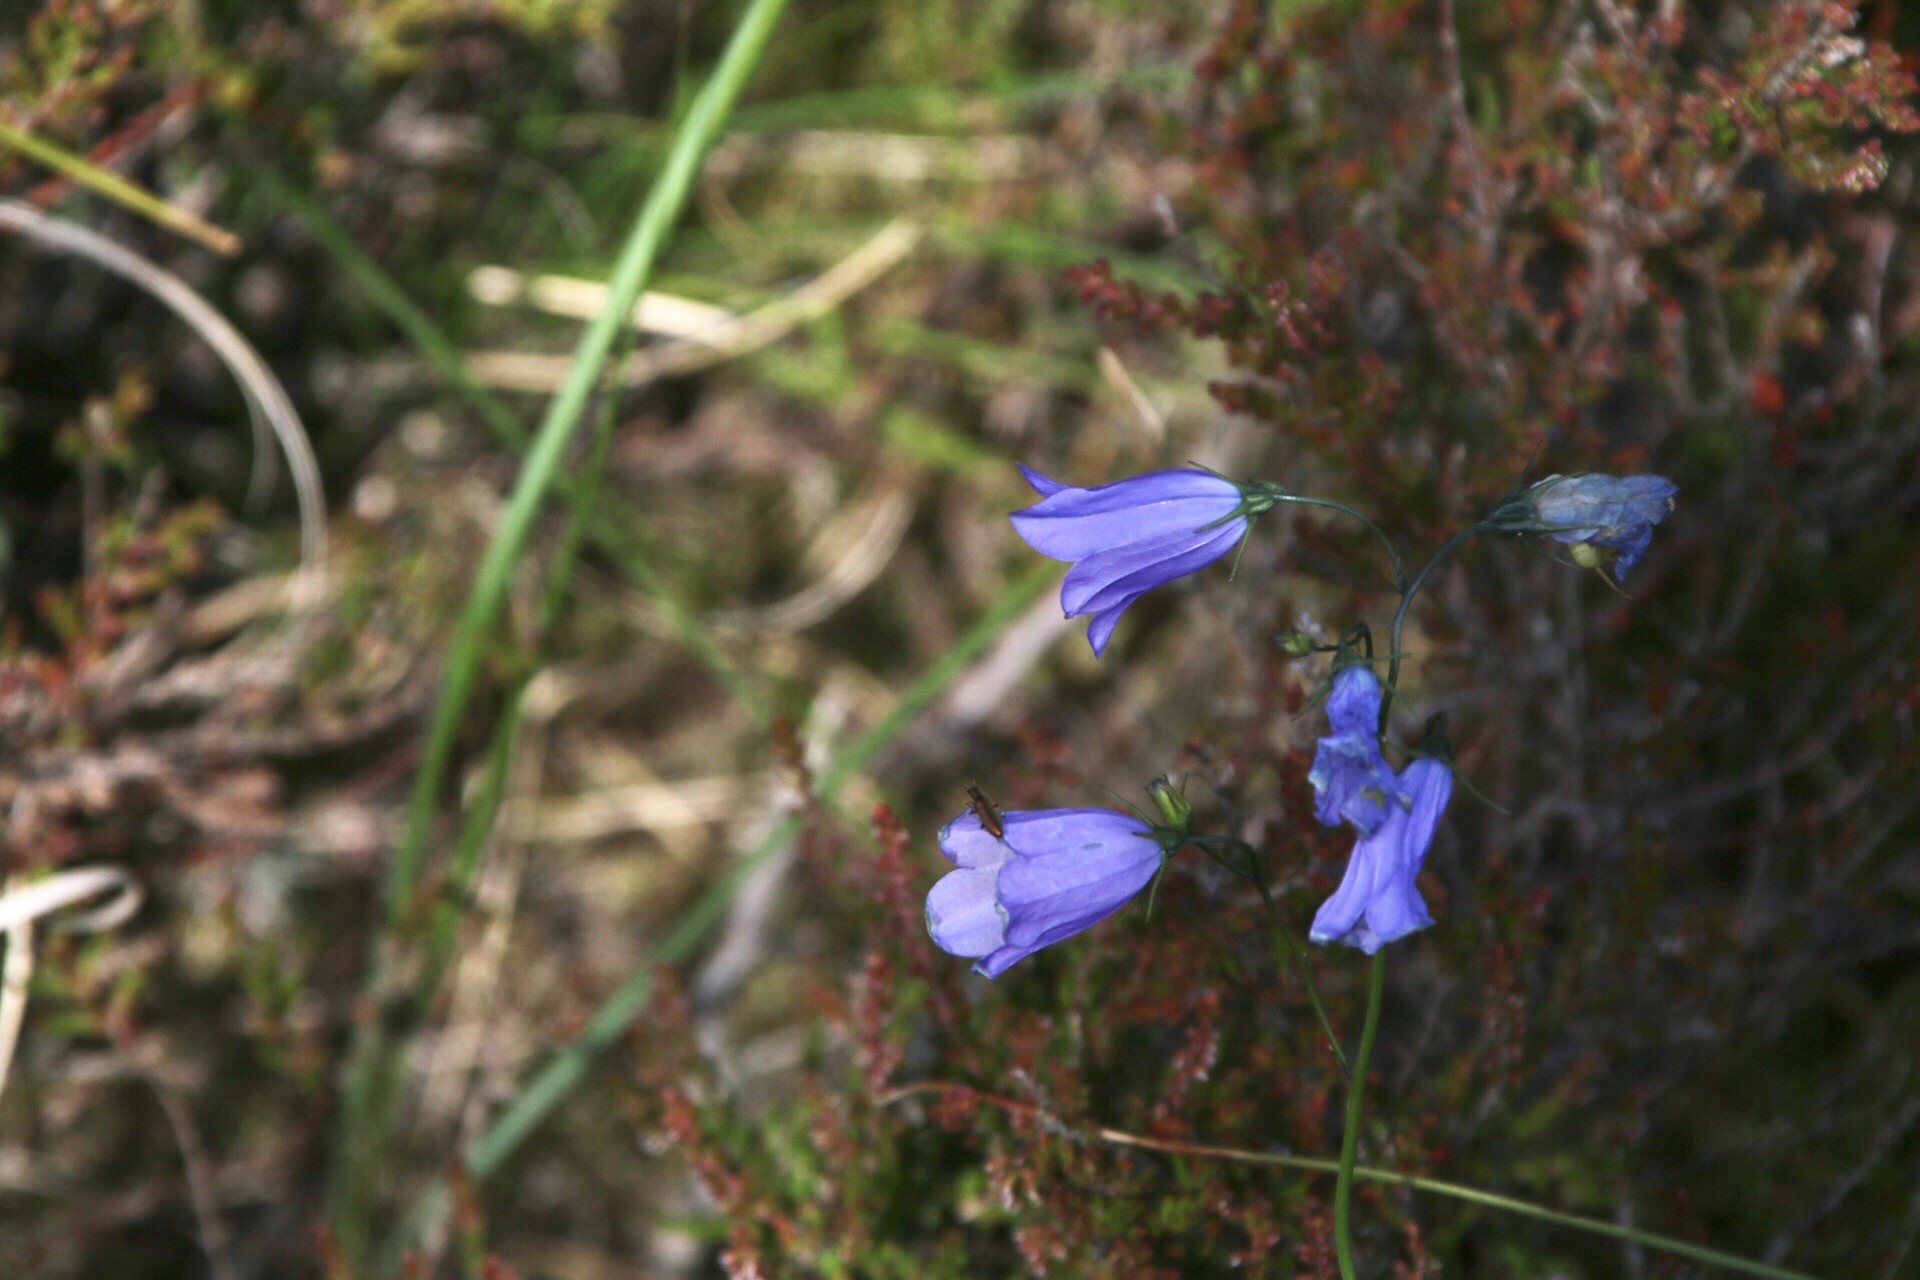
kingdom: Plantae
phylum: Tracheophyta
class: Magnoliopsida
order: Asterales
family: Campanulaceae
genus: Campanula
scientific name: Campanula rotundifolia
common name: Liden klokke
